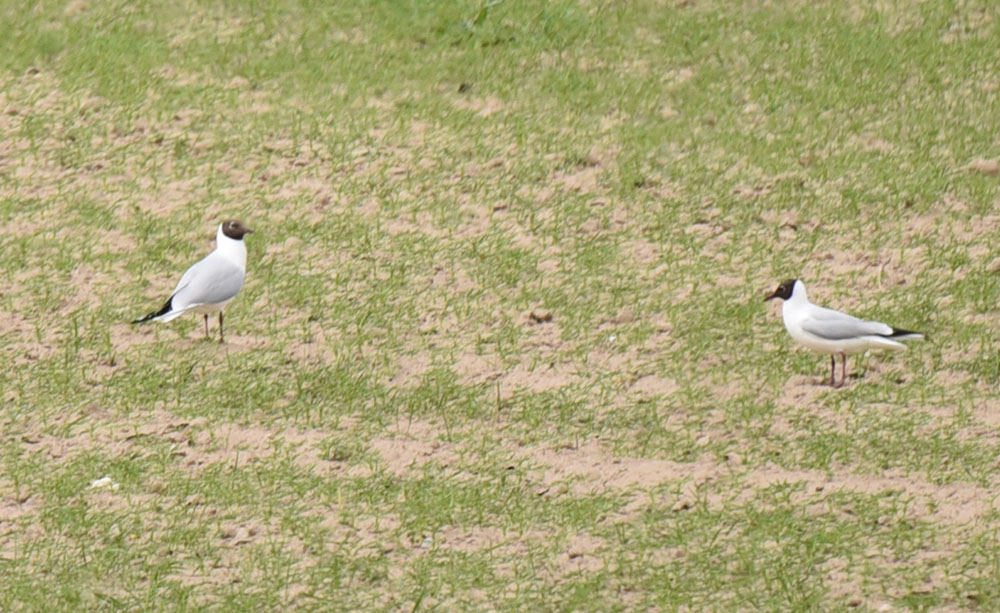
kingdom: Animalia
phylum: Chordata
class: Aves
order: Charadriiformes
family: Laridae
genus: Chroicocephalus
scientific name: Chroicocephalus ridibundus
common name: Black-headed gull
